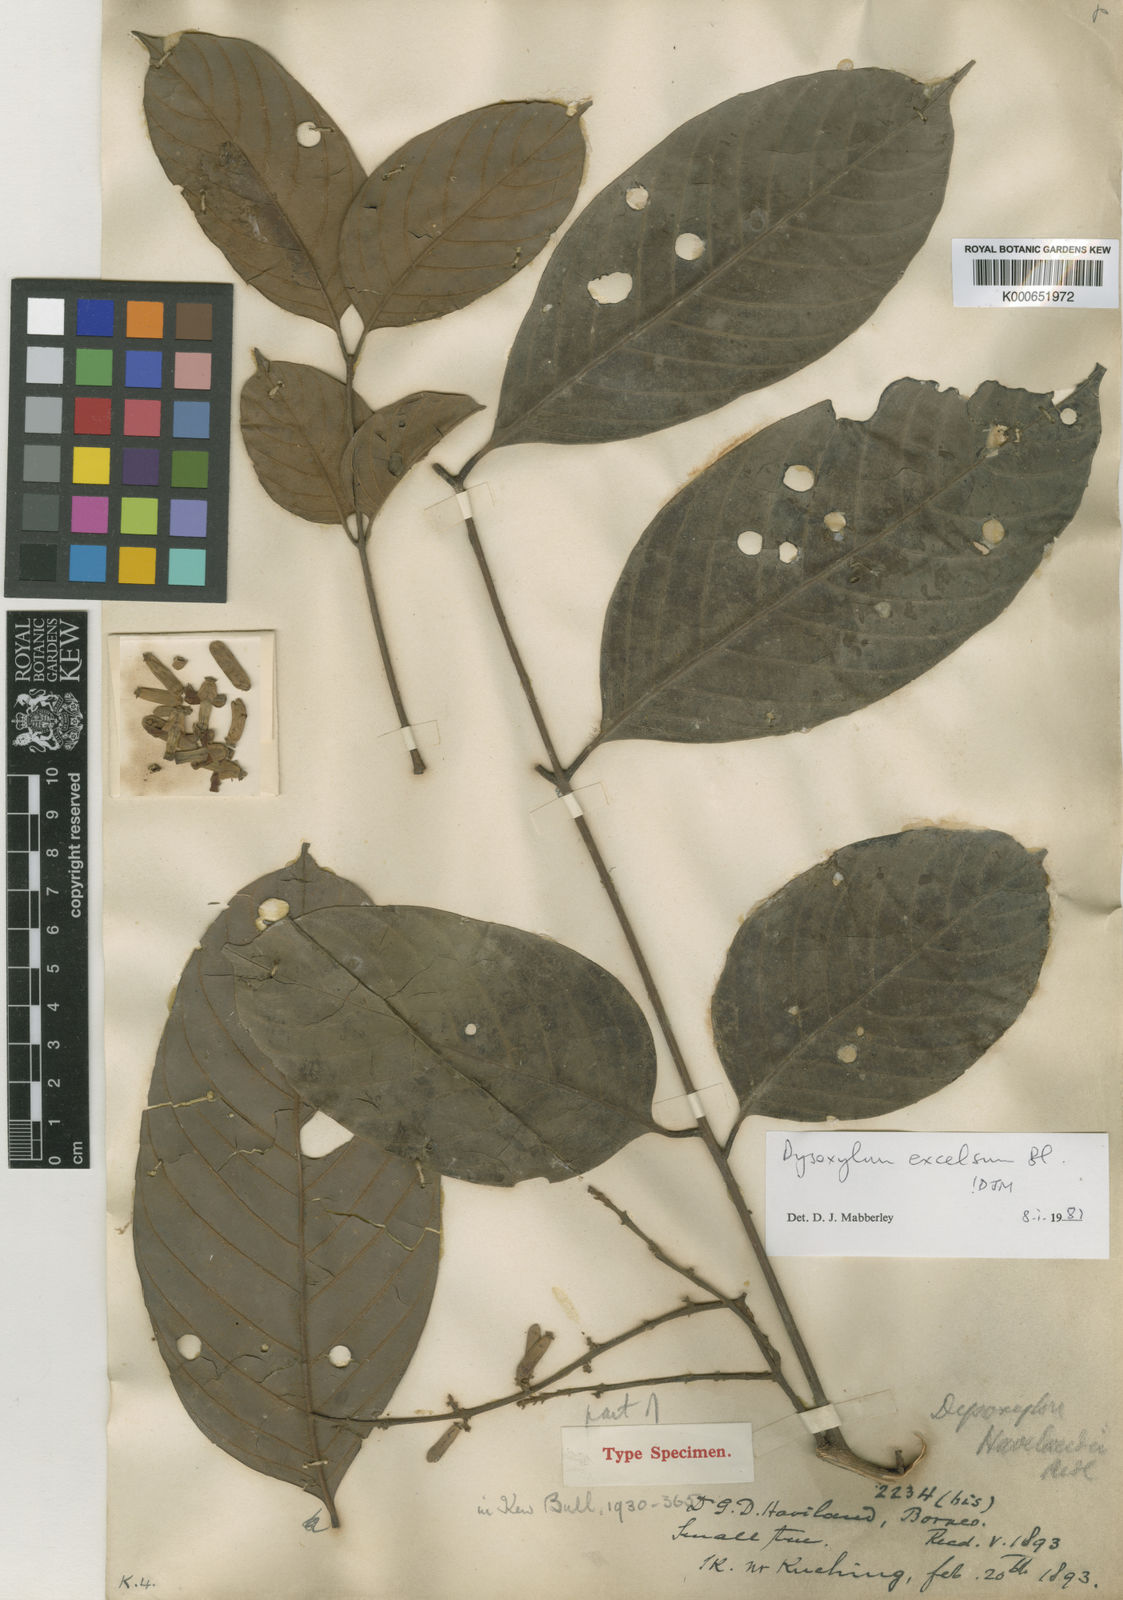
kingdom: Plantae
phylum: Tracheophyta
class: Magnoliopsida
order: Sapindales
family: Meliaceae
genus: Dysoxylum
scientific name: Dysoxylum excelsum
